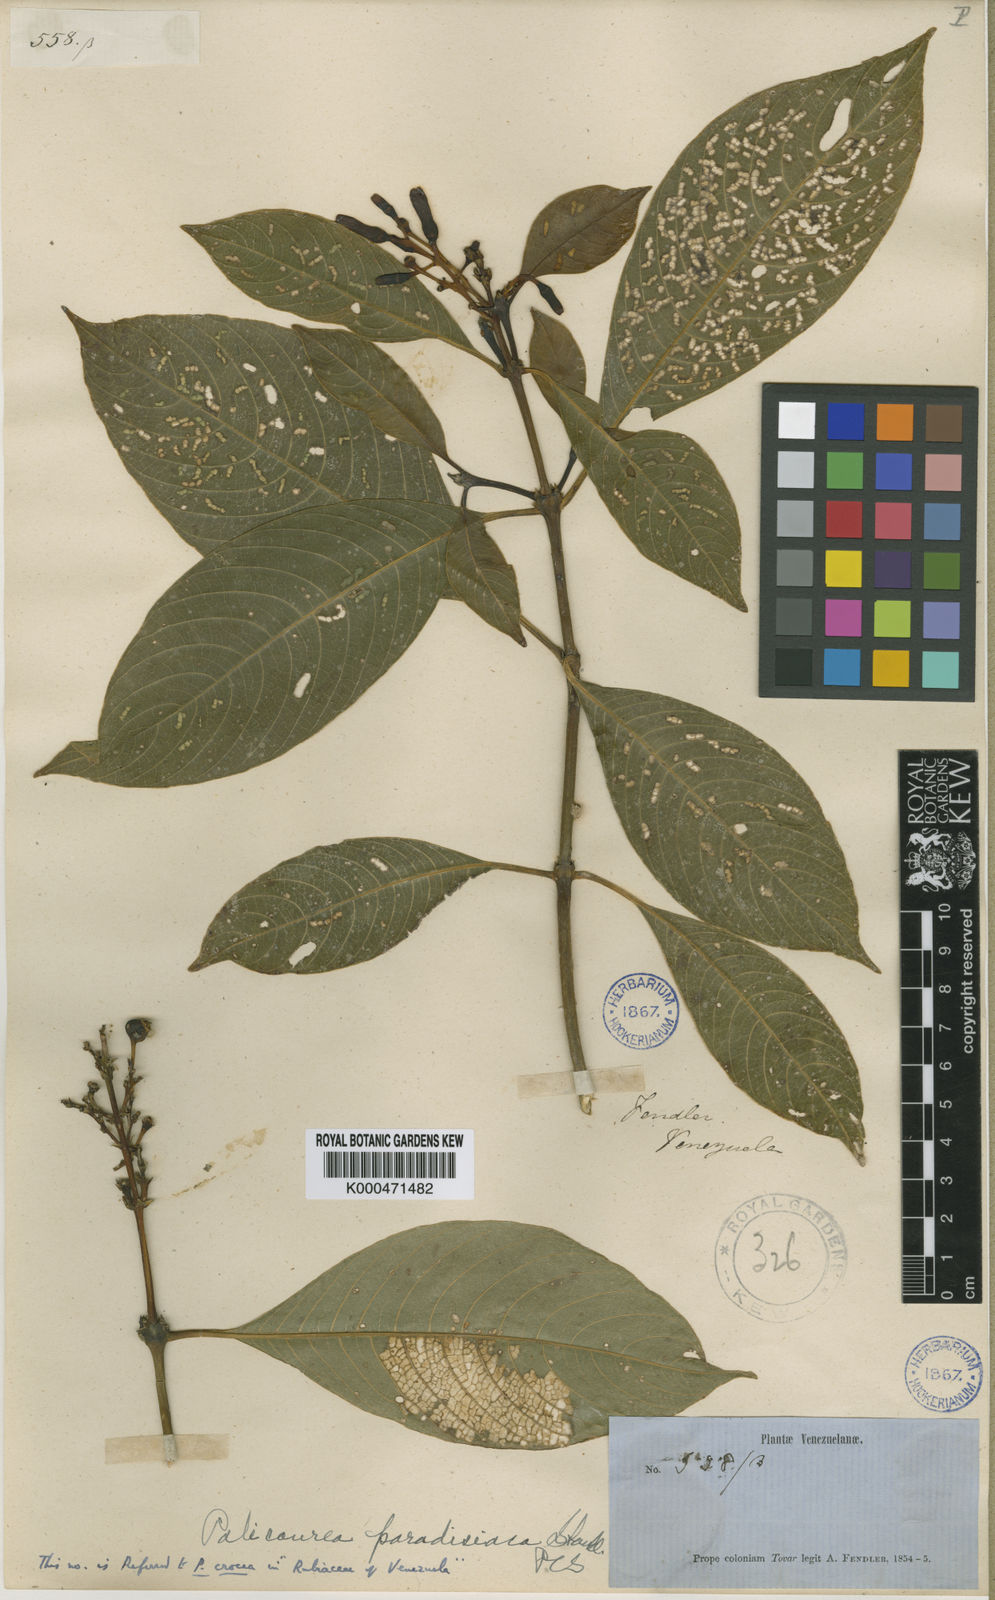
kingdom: Plantae
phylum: Tracheophyta
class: Magnoliopsida
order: Gentianales
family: Rubiaceae
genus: Palicourea
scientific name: Palicourea croceoides
